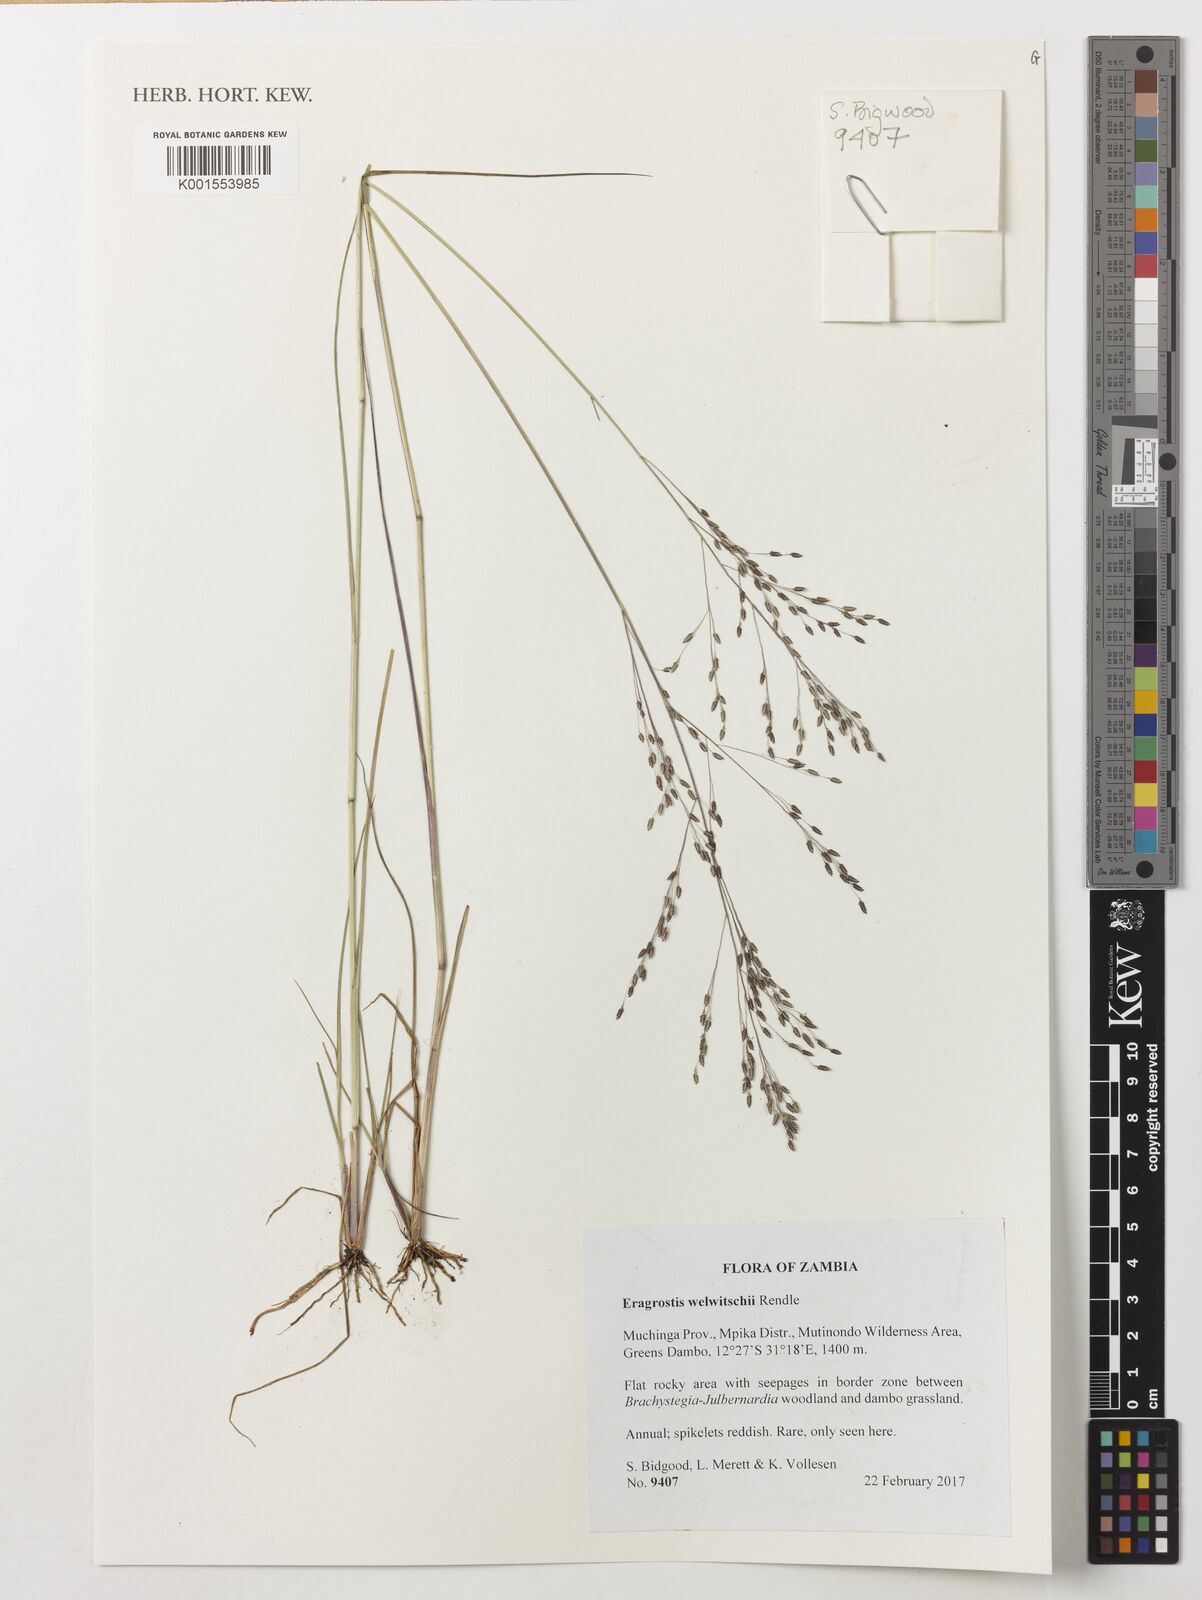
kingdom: Plantae
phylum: Tracheophyta
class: Liliopsida
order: Poales
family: Poaceae
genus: Eragrostis
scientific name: Eragrostis welwitschii
